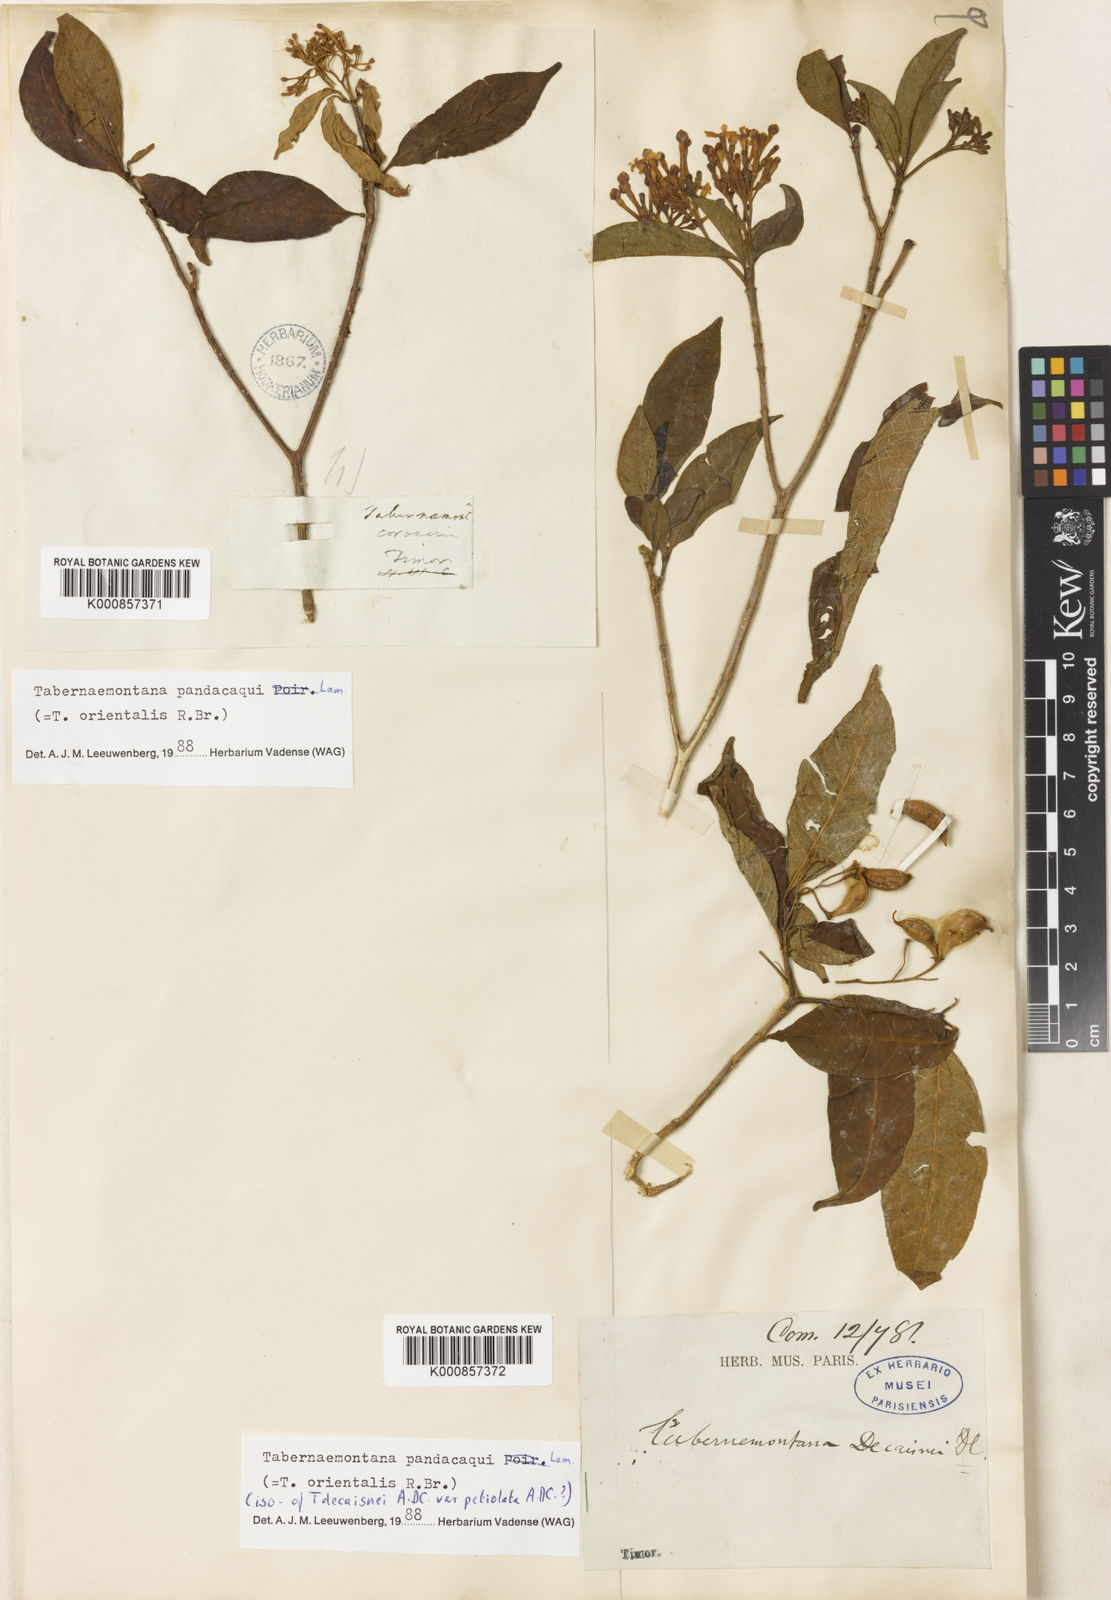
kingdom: Plantae
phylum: Tracheophyta
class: Magnoliopsida
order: Gentianales
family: Apocynaceae
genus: Tabernaemontana
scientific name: Tabernaemontana
